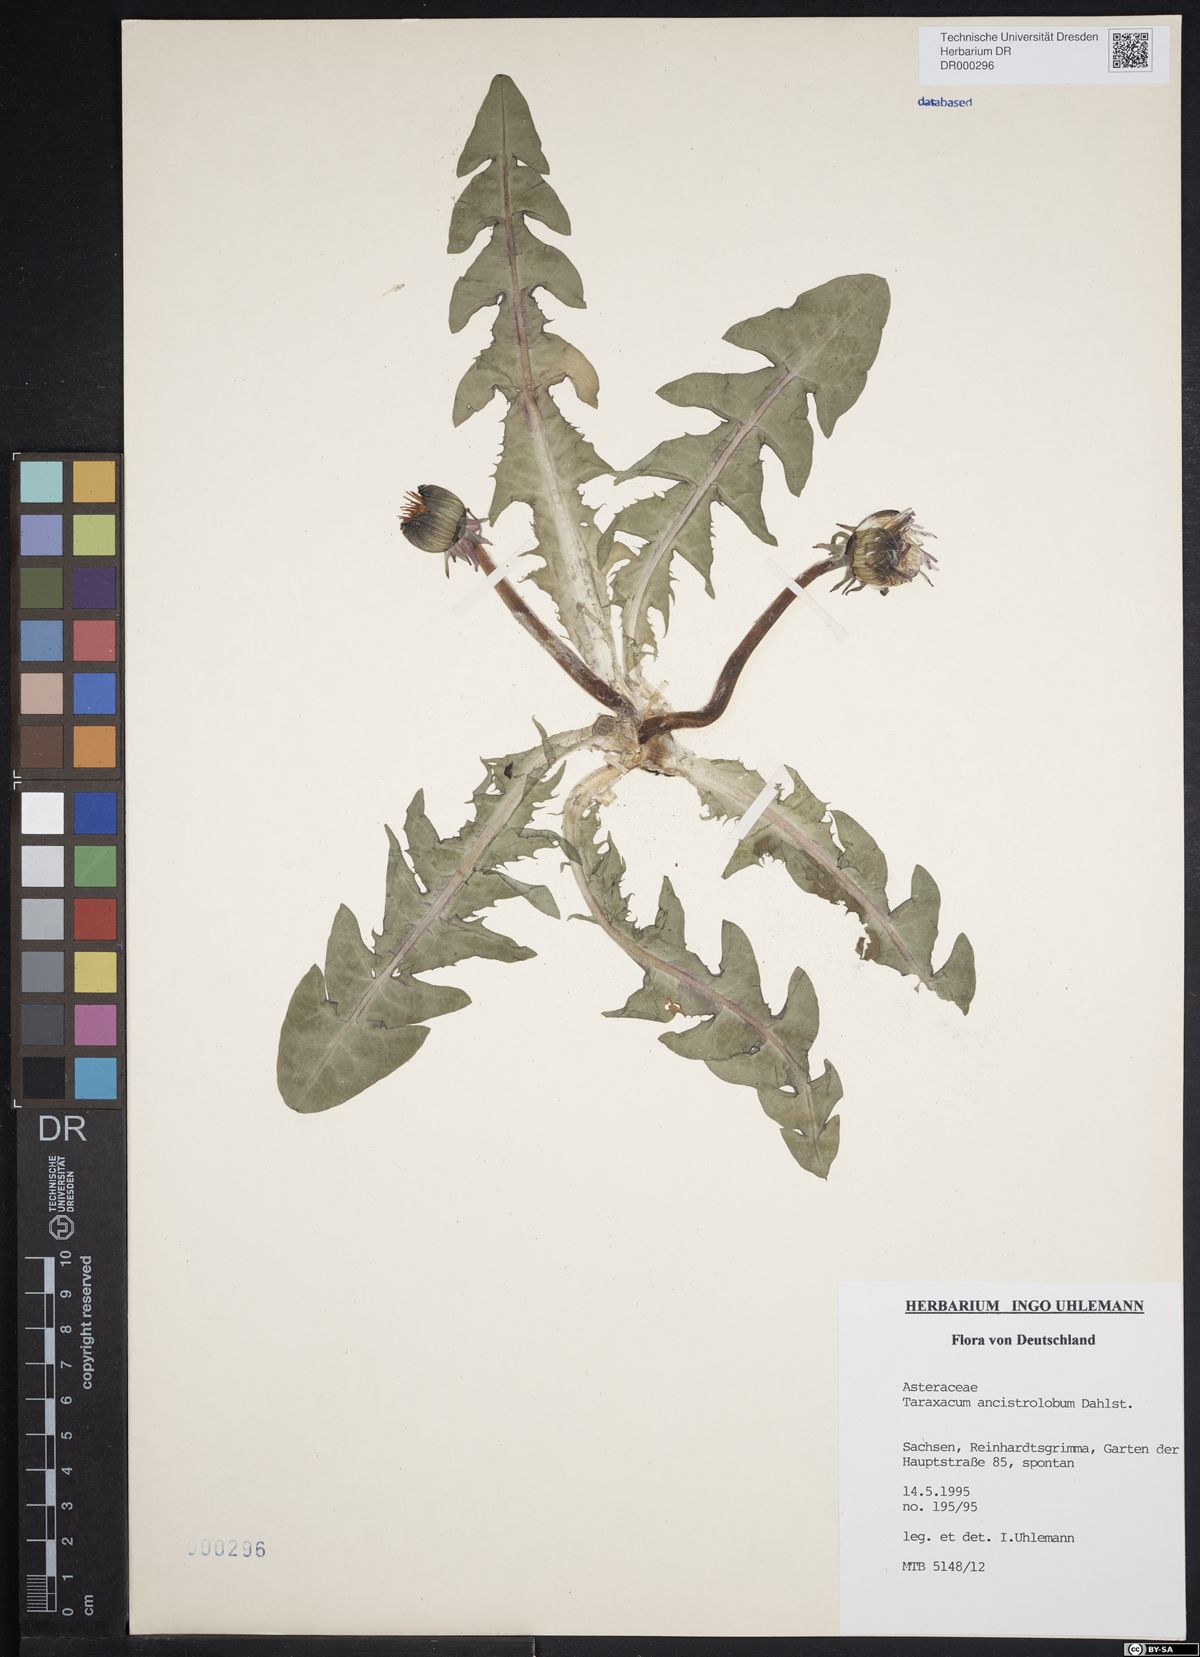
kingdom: Plantae
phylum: Tracheophyta
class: Magnoliopsida
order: Asterales
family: Asteraceae
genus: Taraxacum
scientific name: Taraxacum ancistrolobum
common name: Few-lobed dandelion
